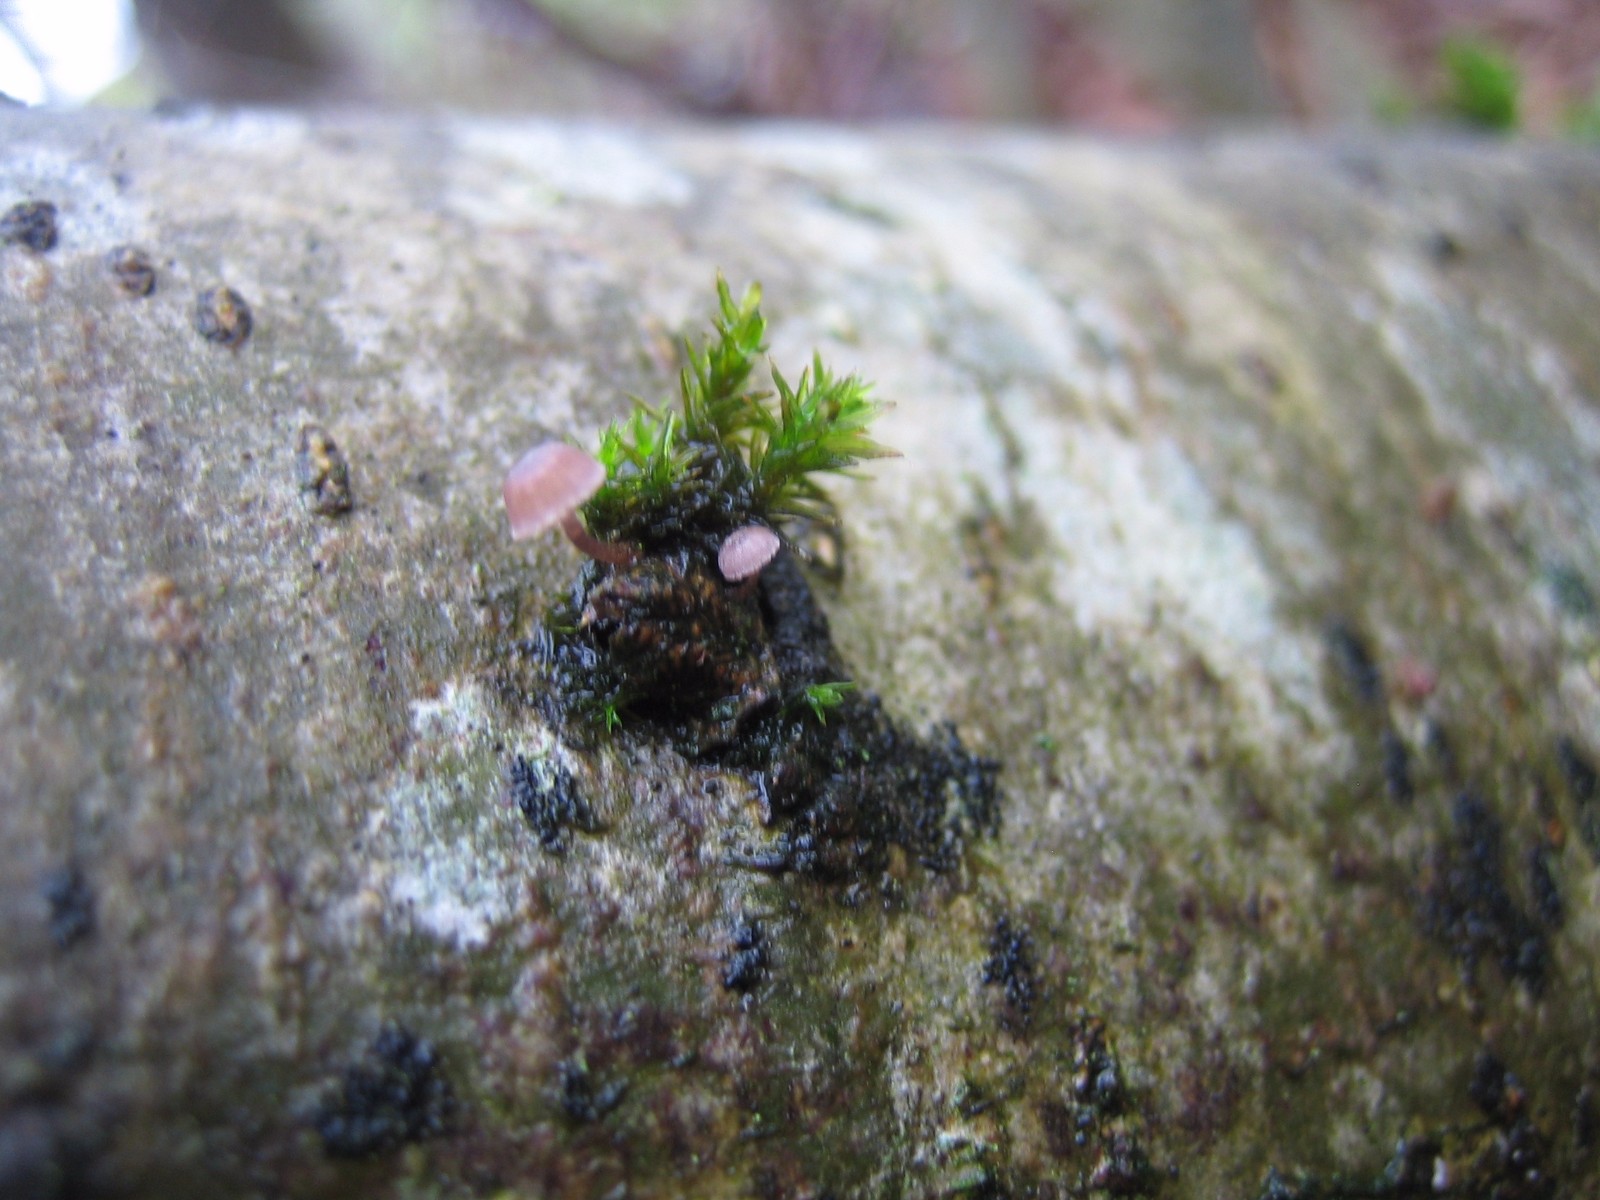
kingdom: Fungi
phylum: Basidiomycota
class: Agaricomycetes
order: Agaricales
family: Mycenaceae
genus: Mycena
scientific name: Mycena meliigena
